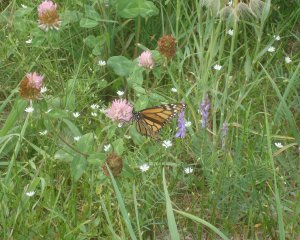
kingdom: Animalia
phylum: Arthropoda
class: Insecta
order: Lepidoptera
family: Nymphalidae
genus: Danaus
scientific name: Danaus plexippus
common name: Monarch
